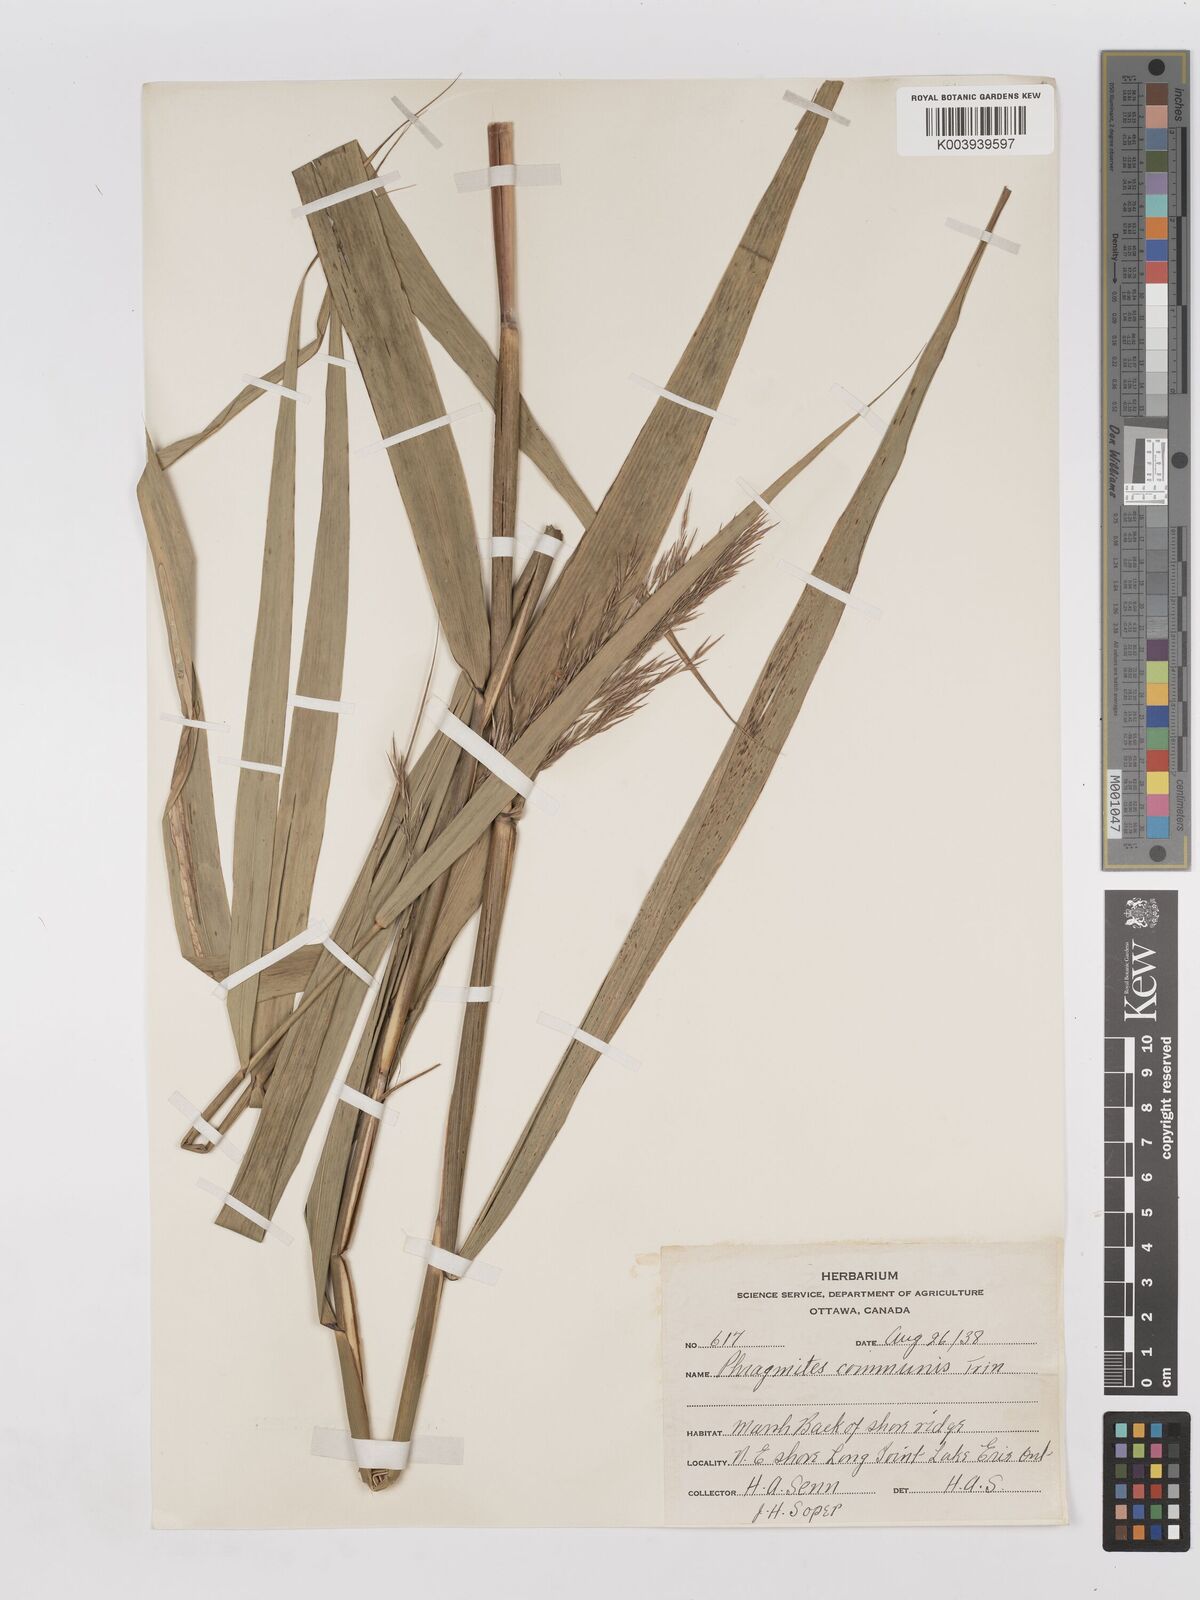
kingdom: Plantae
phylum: Tracheophyta
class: Liliopsida
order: Poales
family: Poaceae
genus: Phragmites
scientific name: Phragmites australis
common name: Common reed
